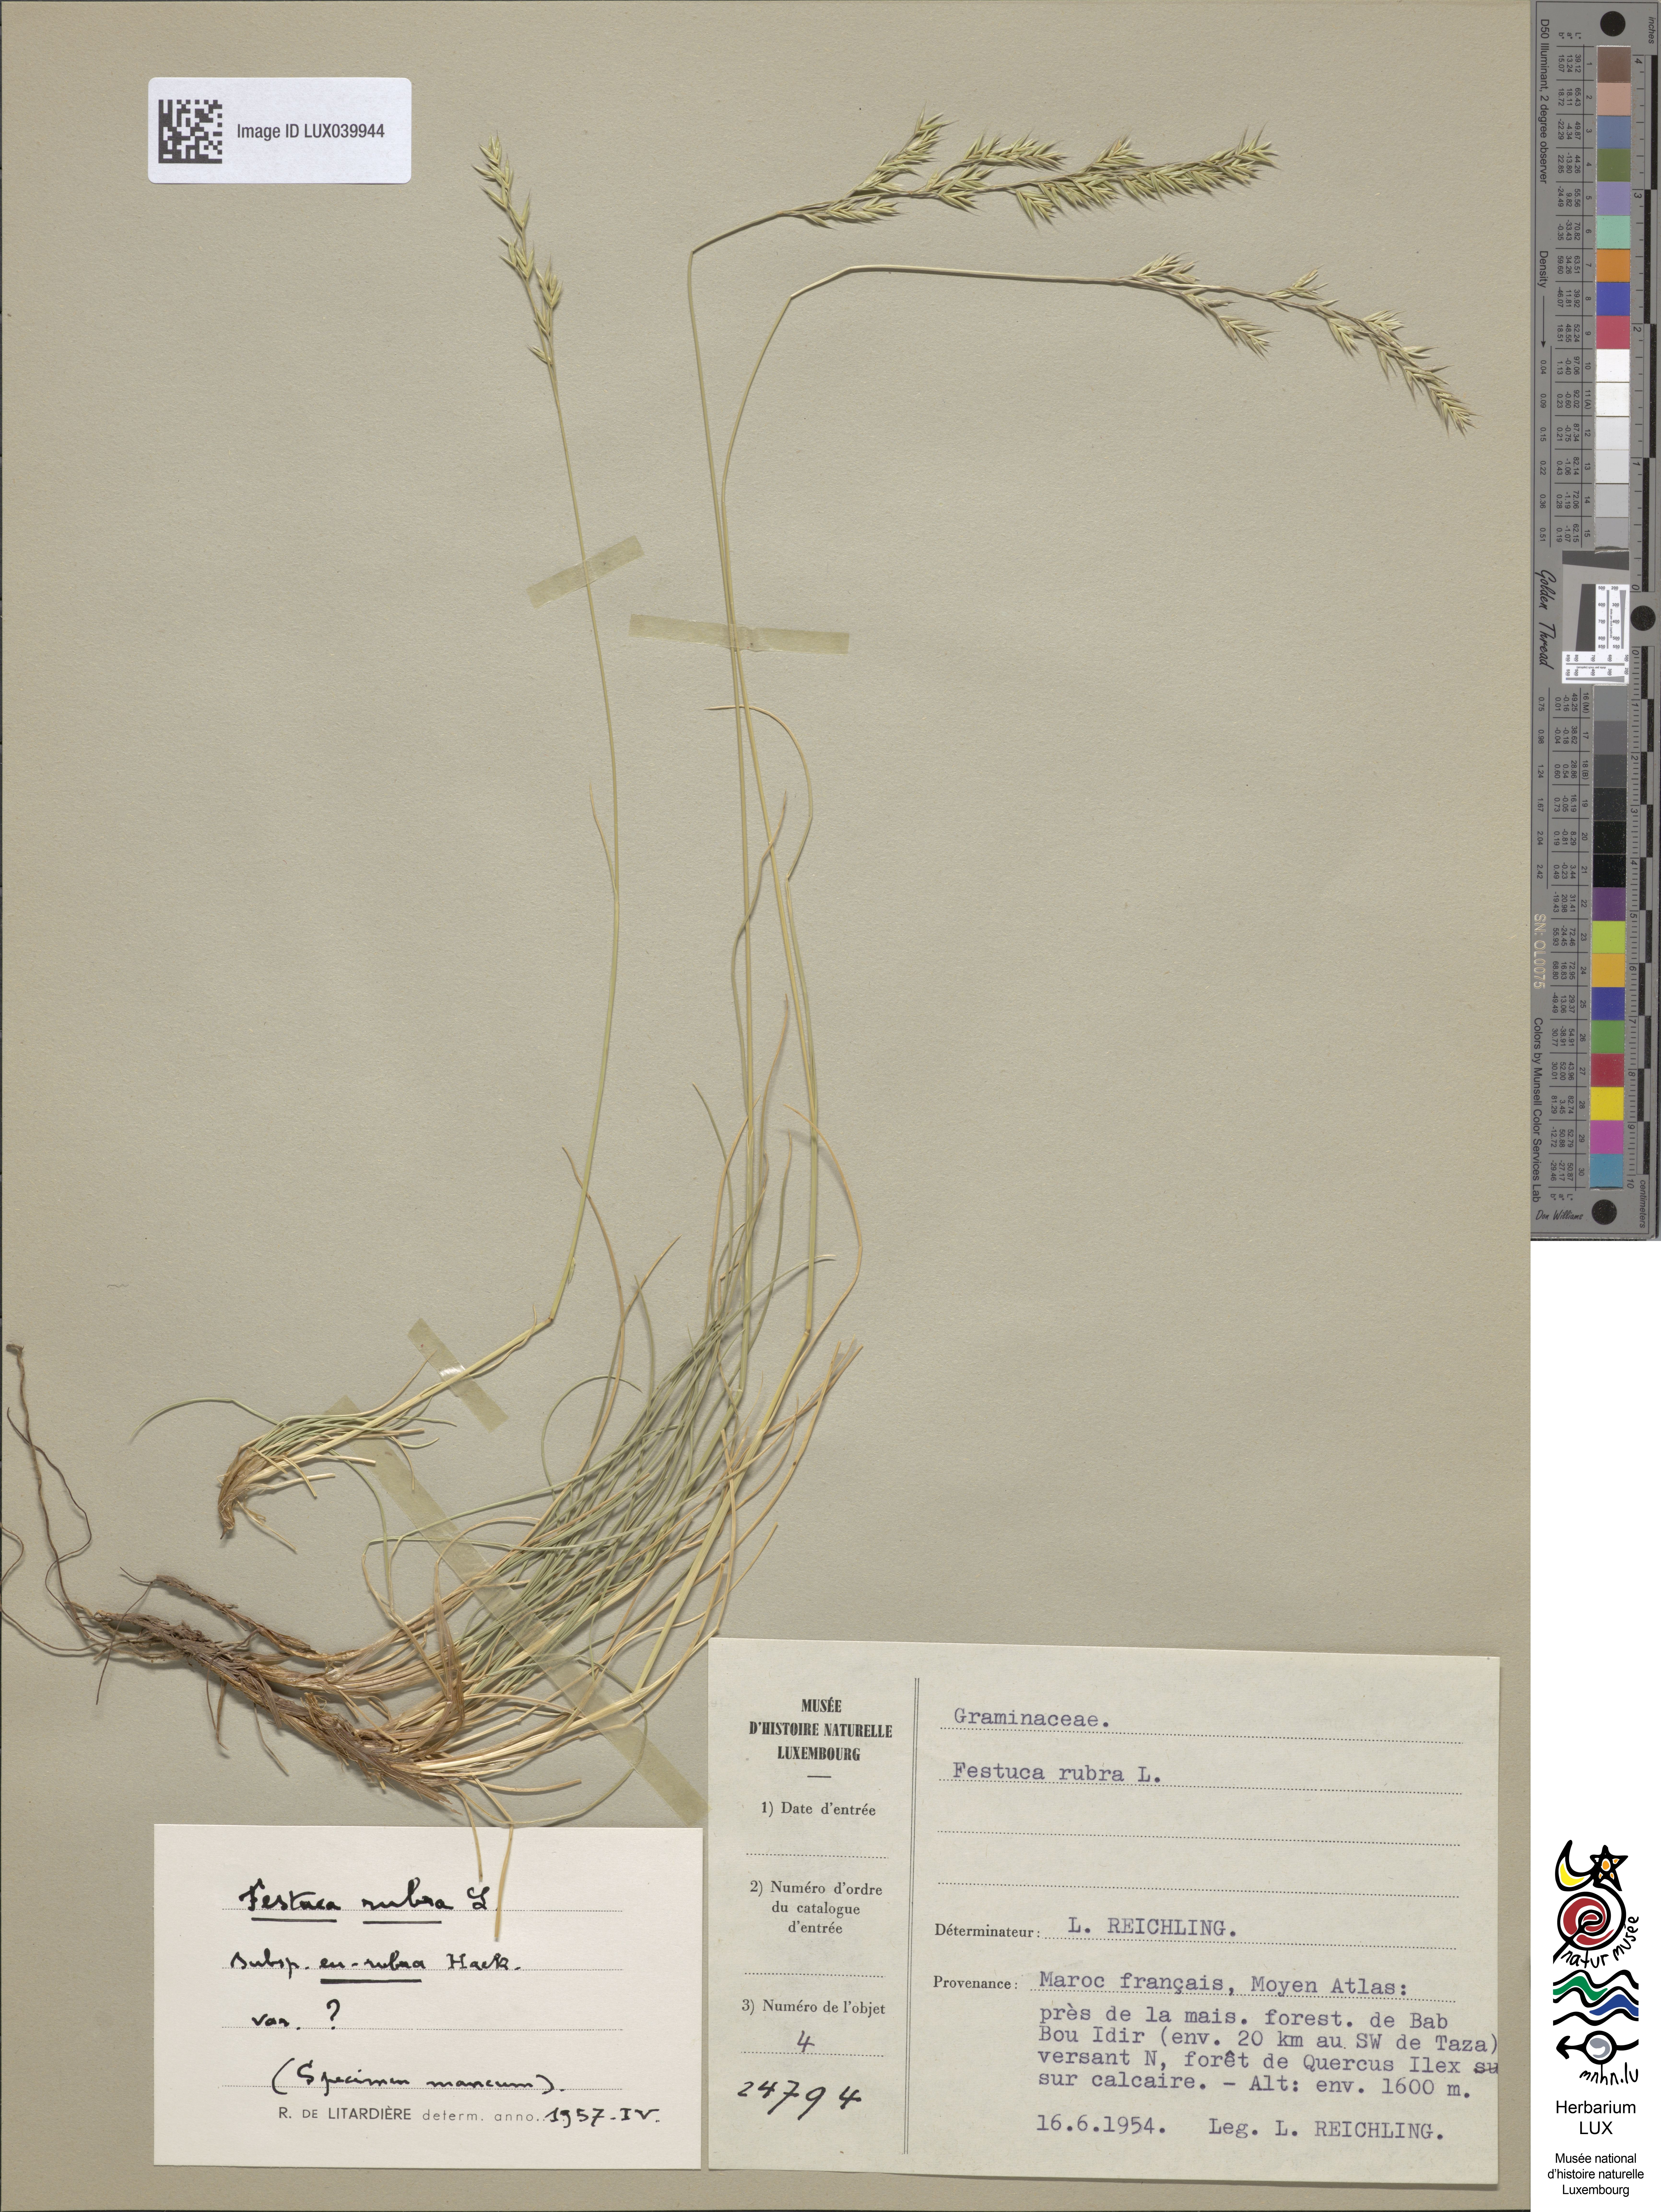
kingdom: Plantae
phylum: Tracheophyta
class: Liliopsida
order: Poales
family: Poaceae
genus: Festuca
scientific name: Festuca rubra
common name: Red fescue
